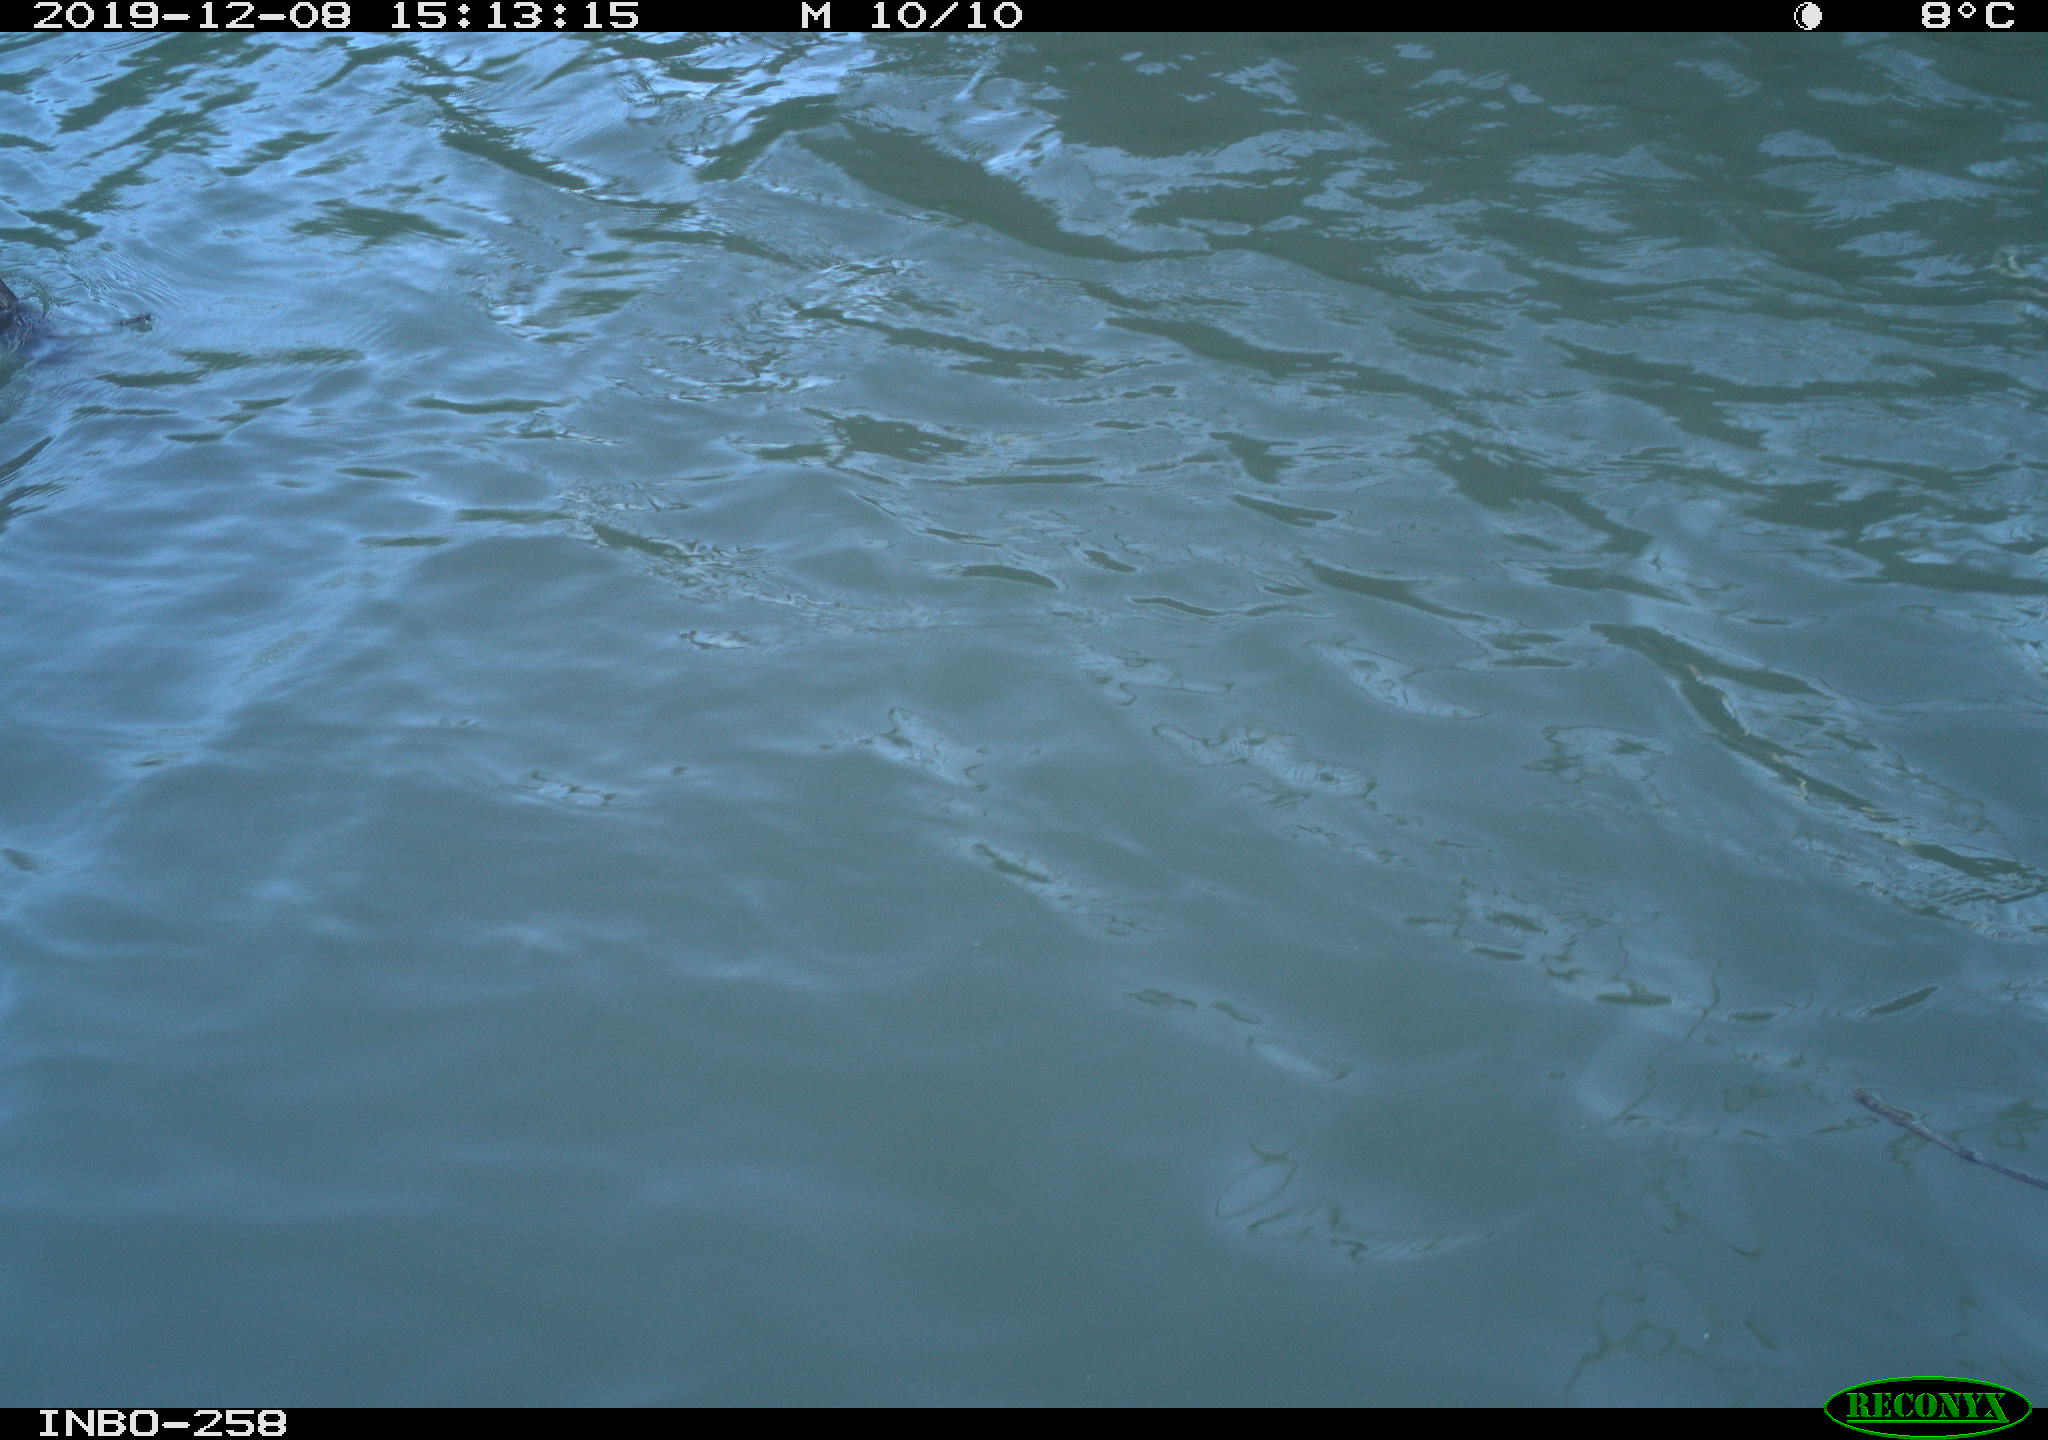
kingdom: Animalia
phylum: Chordata
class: Aves
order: Gruiformes
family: Rallidae
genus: Gallinula
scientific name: Gallinula chloropus
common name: Common moorhen
